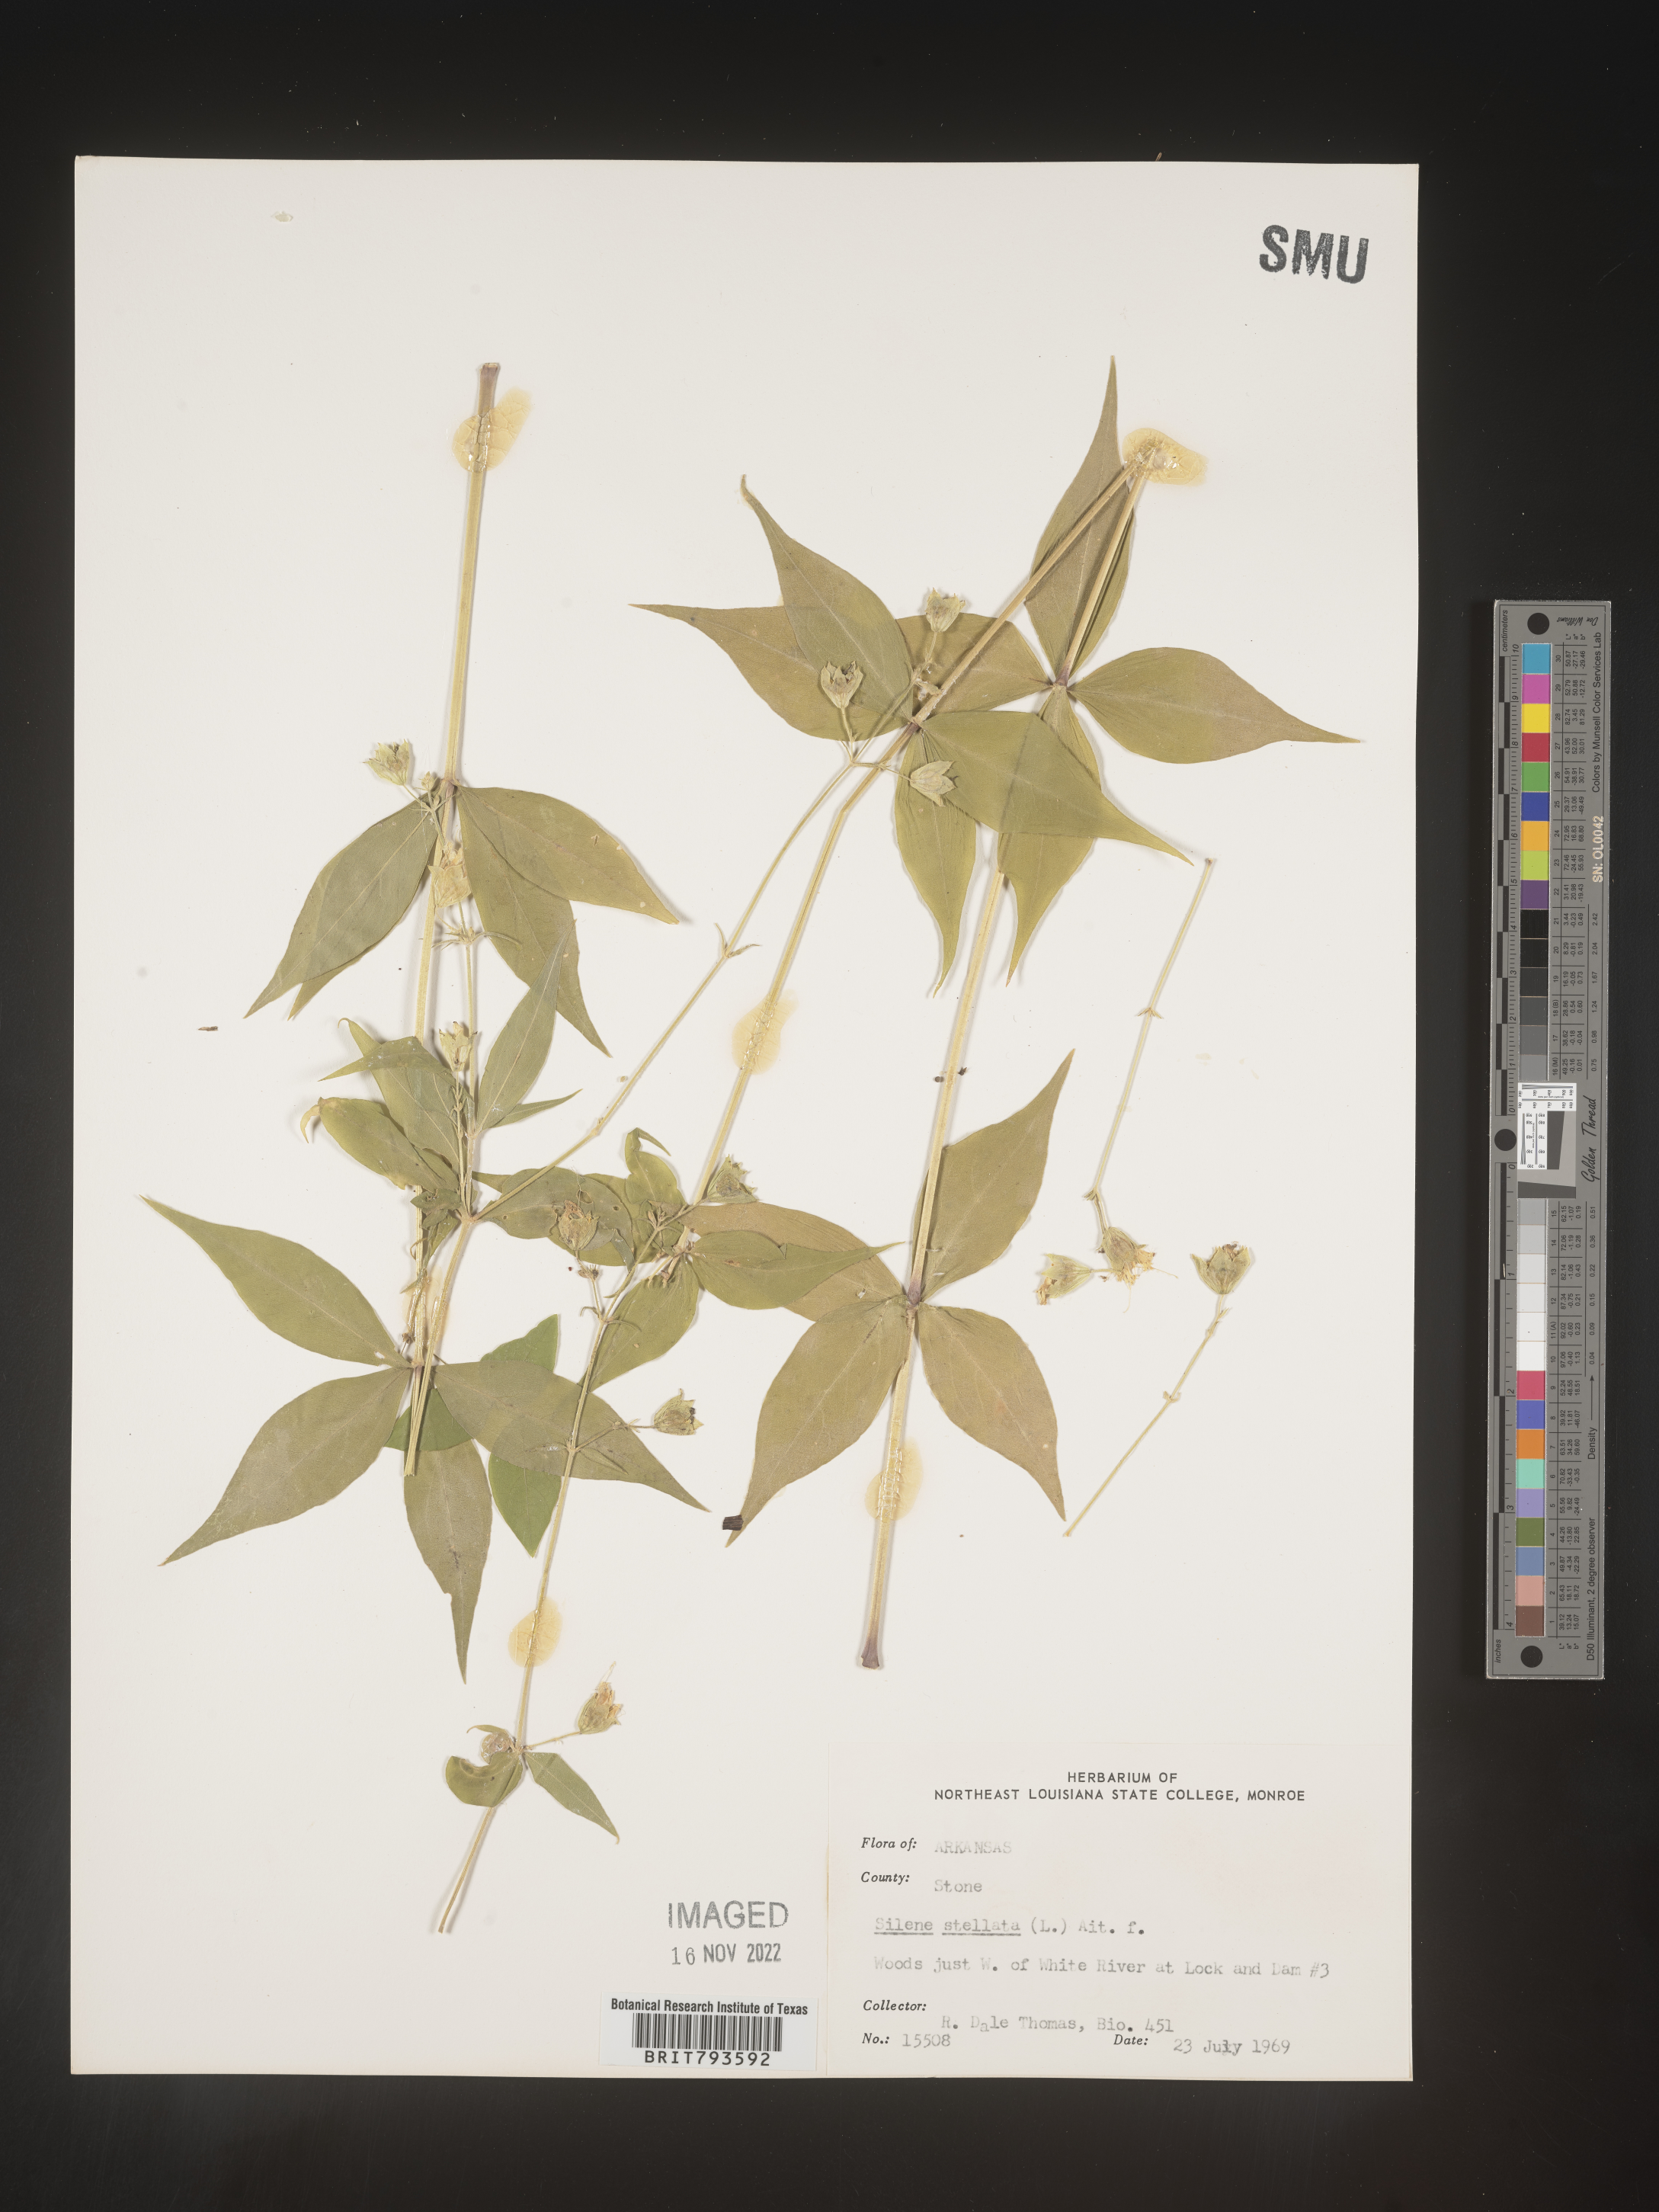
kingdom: Plantae
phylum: Tracheophyta
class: Magnoliopsida
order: Caryophyllales
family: Caryophyllaceae
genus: Silene
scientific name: Silene stellata
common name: Starry campion
